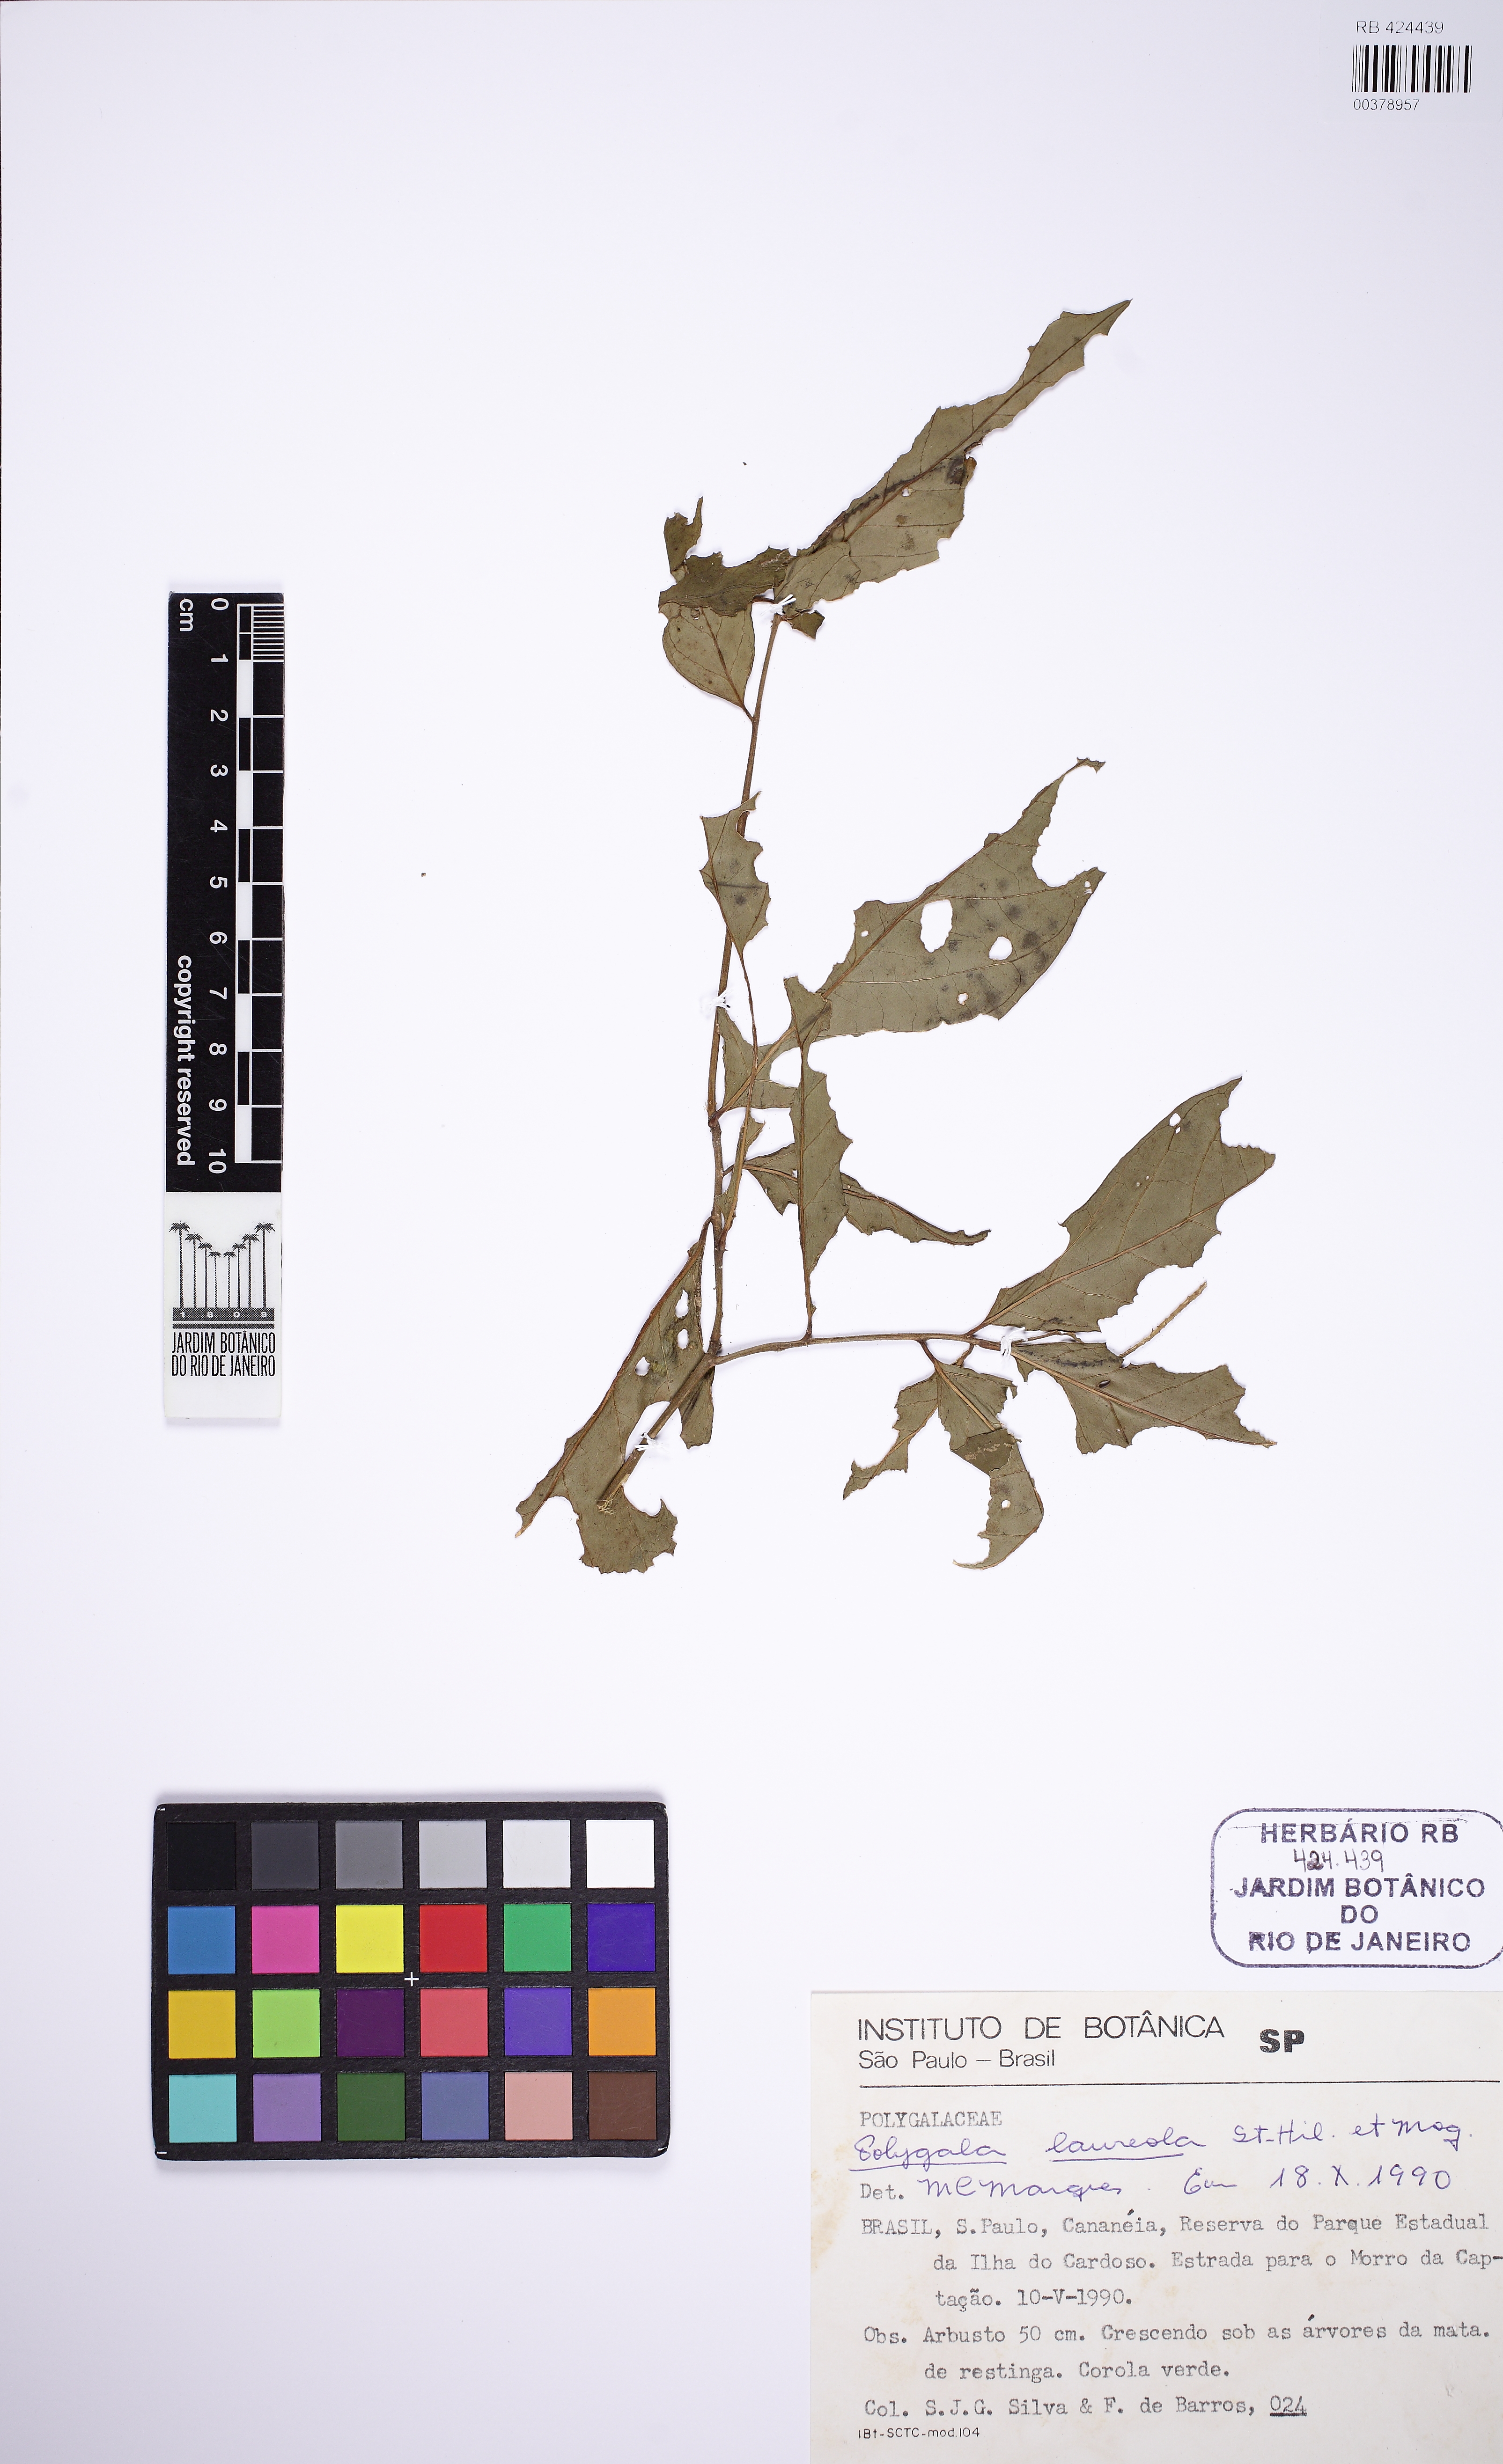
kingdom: Plantae
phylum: Tracheophyta
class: Magnoliopsida
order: Fabales
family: Polygalaceae
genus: Caamembeca
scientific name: Caamembeca salicifolia
